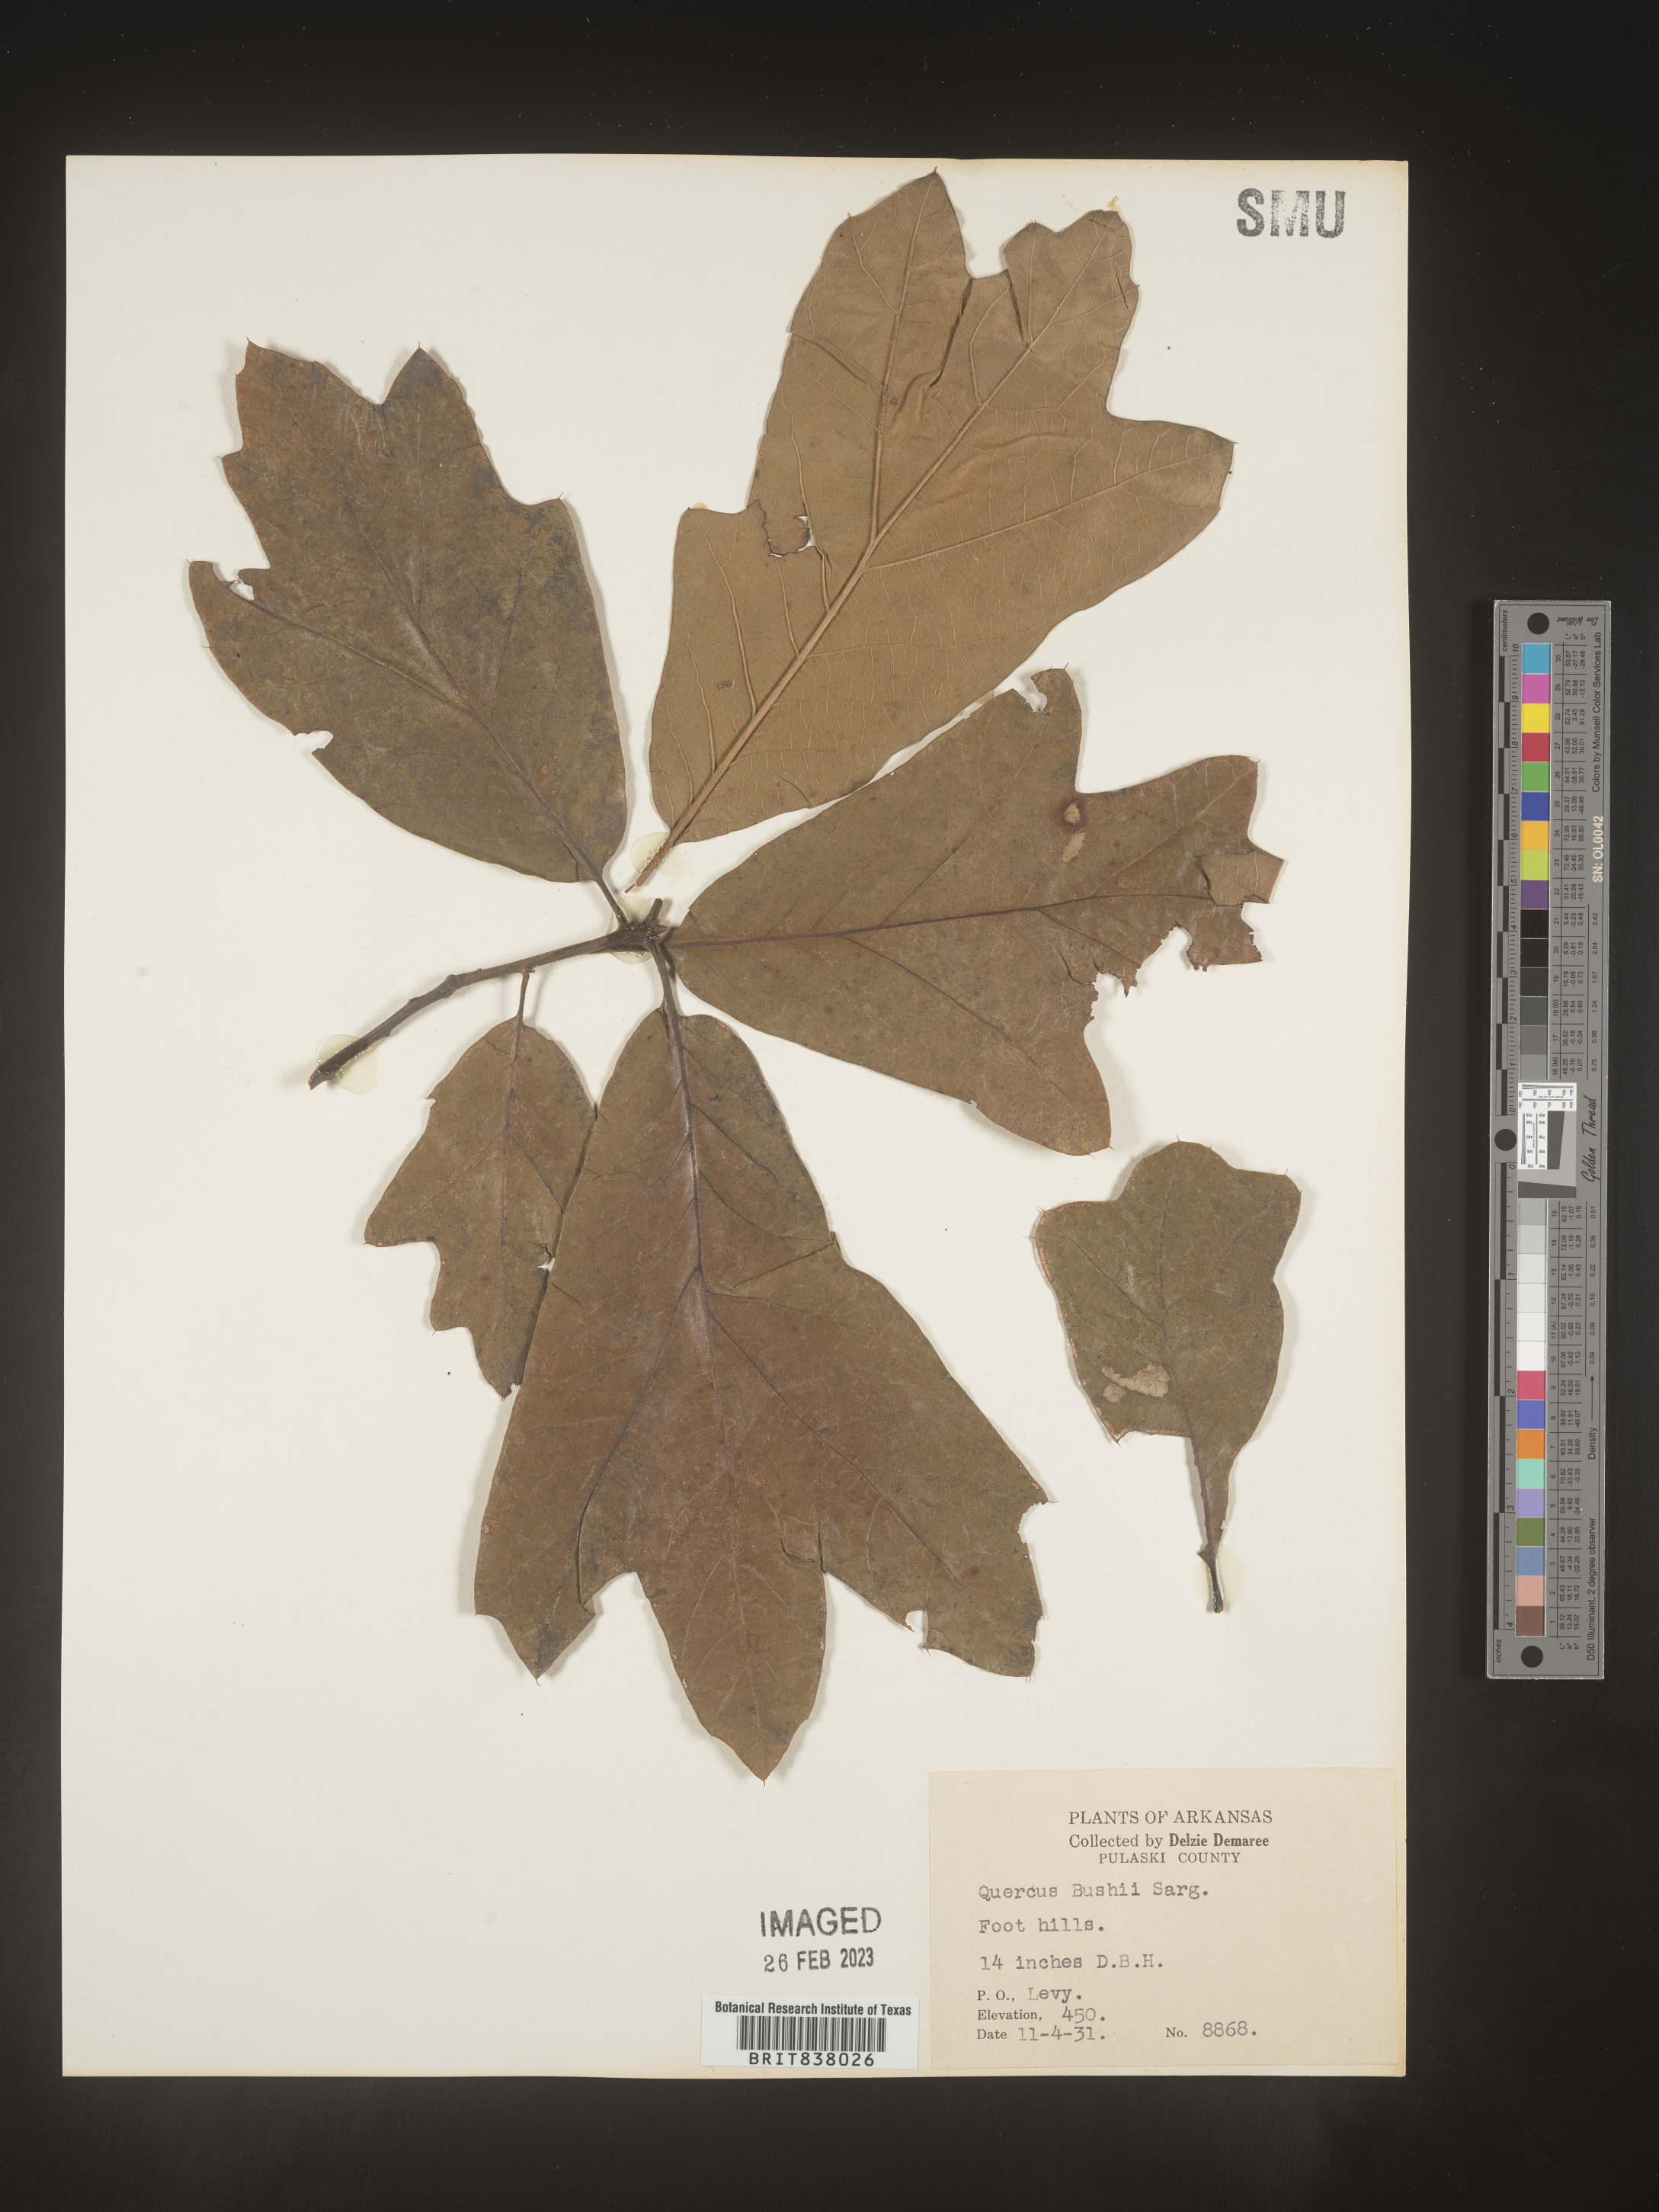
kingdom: Plantae
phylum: Tracheophyta
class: Magnoliopsida
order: Fagales
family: Fagaceae
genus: Quercus
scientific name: Quercus
